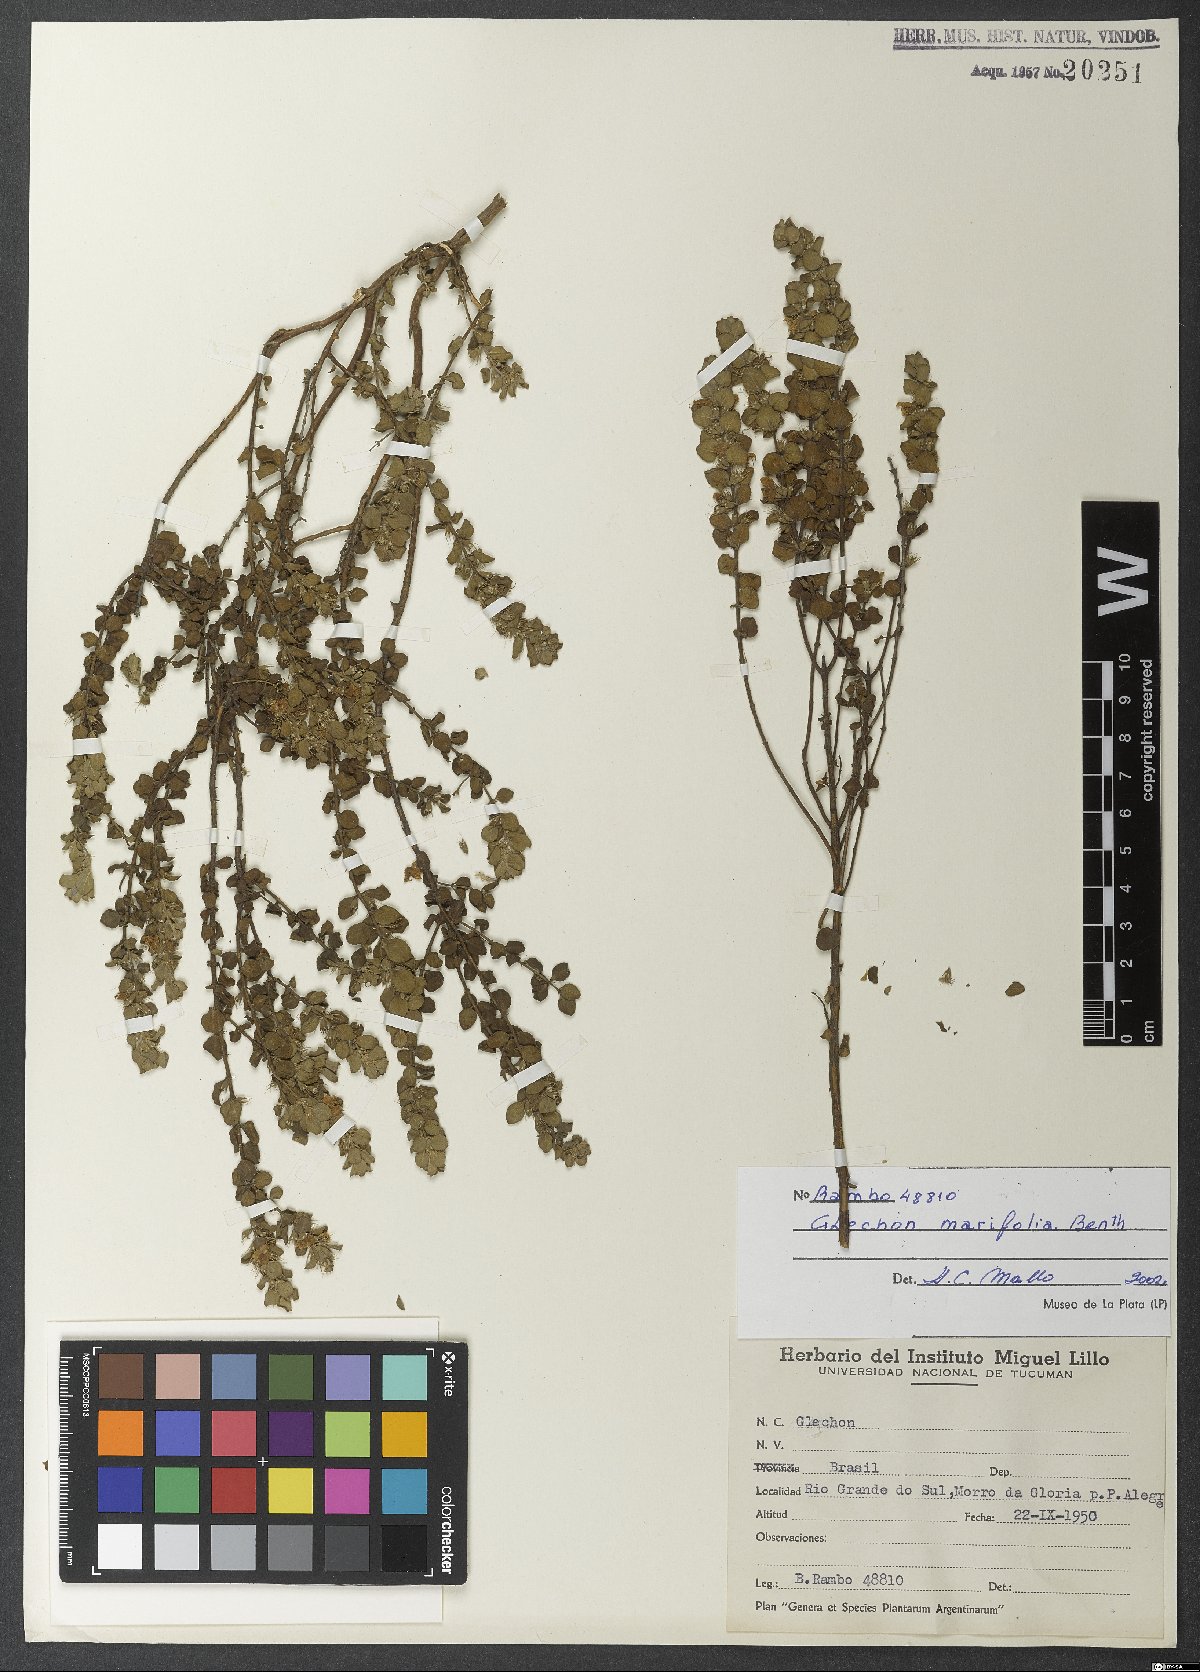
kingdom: Plantae
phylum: Tracheophyta
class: Magnoliopsida
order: Lamiales
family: Lamiaceae
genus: Glechon
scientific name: Glechon marifolia
